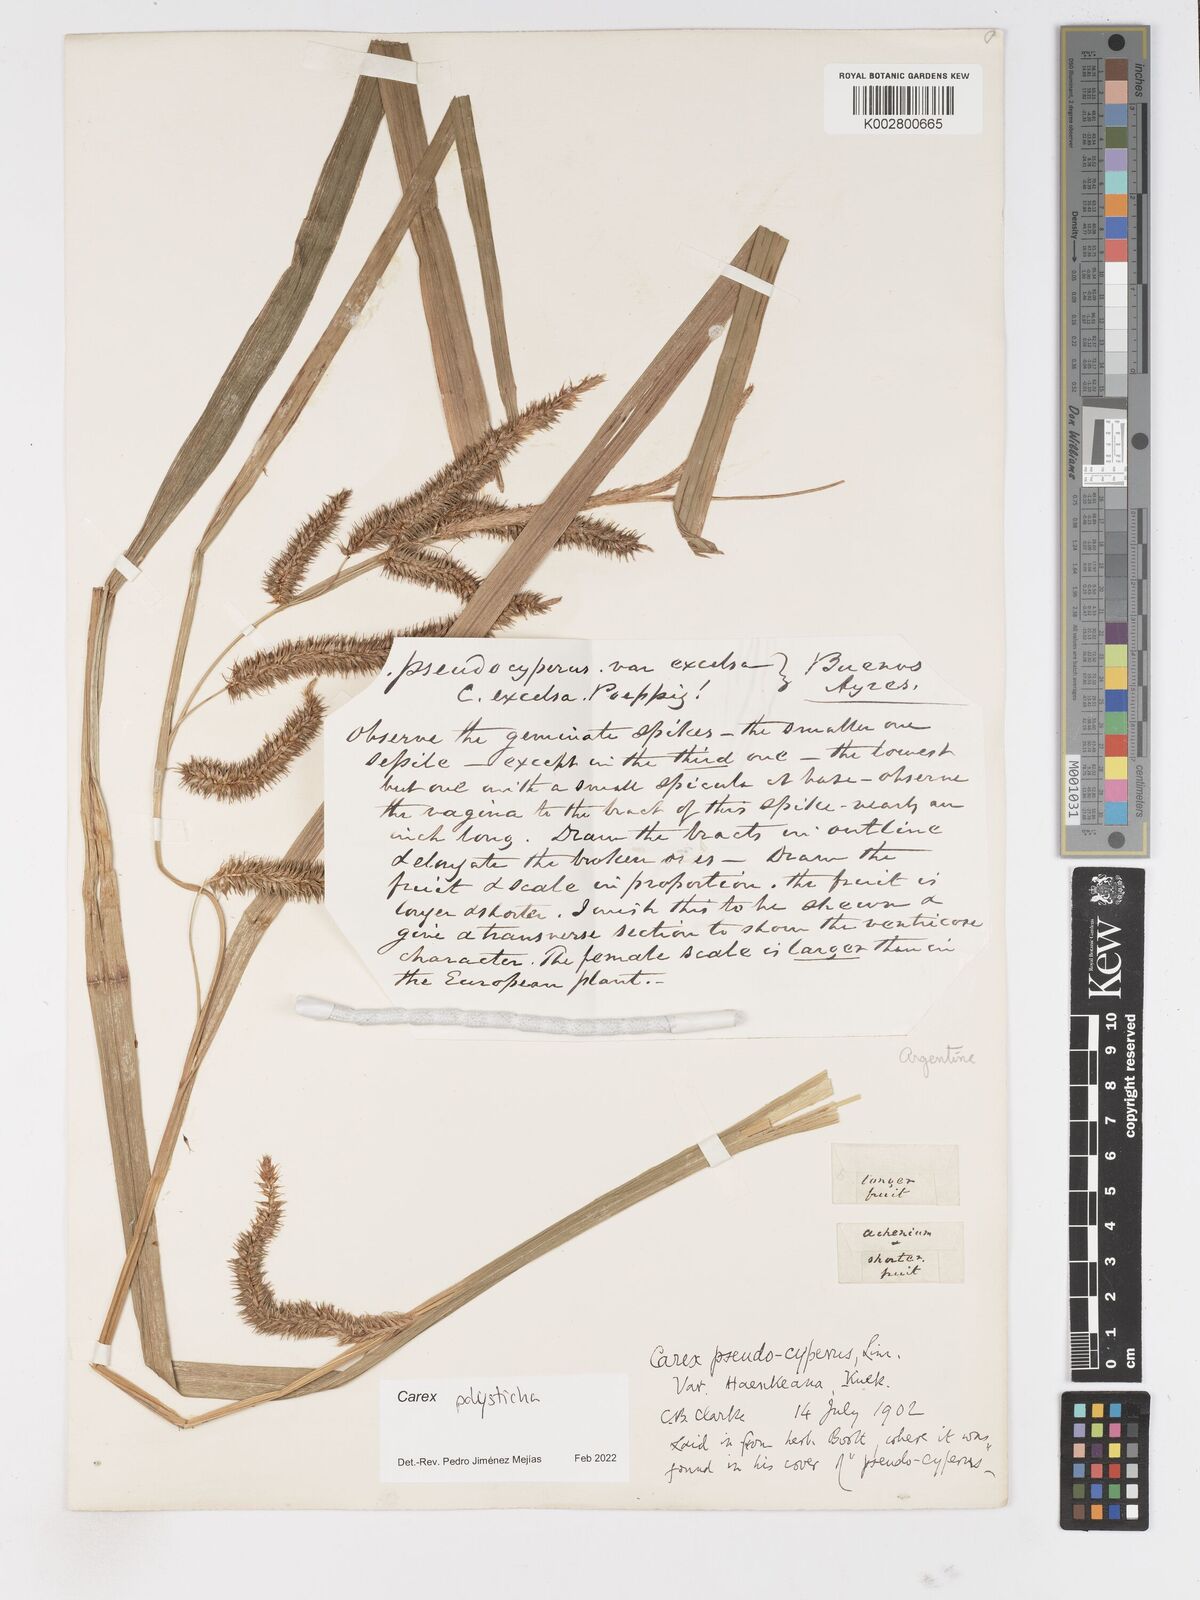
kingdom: Plantae
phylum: Tracheophyta
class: Liliopsida
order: Poales
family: Cyperaceae
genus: Carex
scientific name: Carex polysticha
